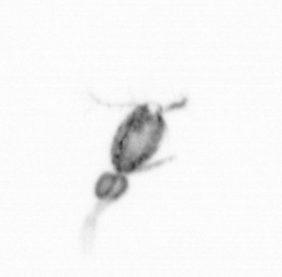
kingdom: Animalia
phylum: Arthropoda
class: Copepoda
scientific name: Copepoda
